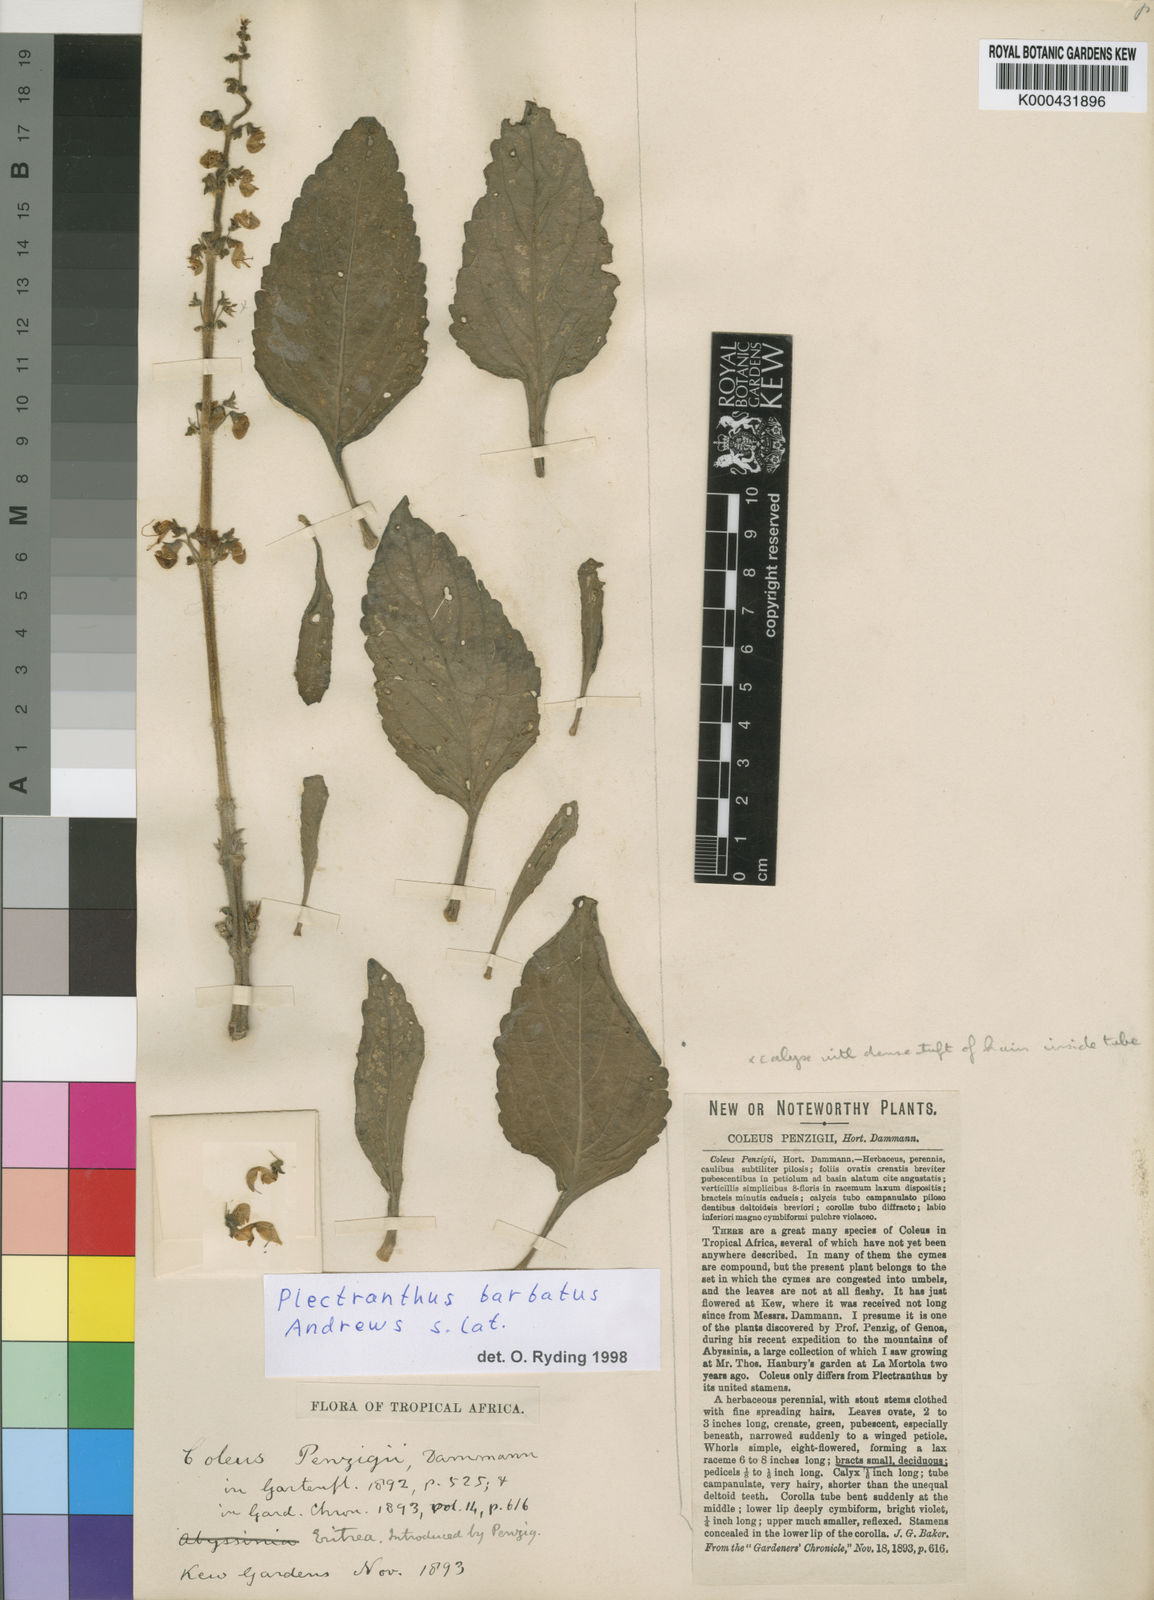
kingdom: Plantae
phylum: Tracheophyta
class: Magnoliopsida
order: Lamiales
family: Lamiaceae
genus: Coleus
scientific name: Coleus barbatus
